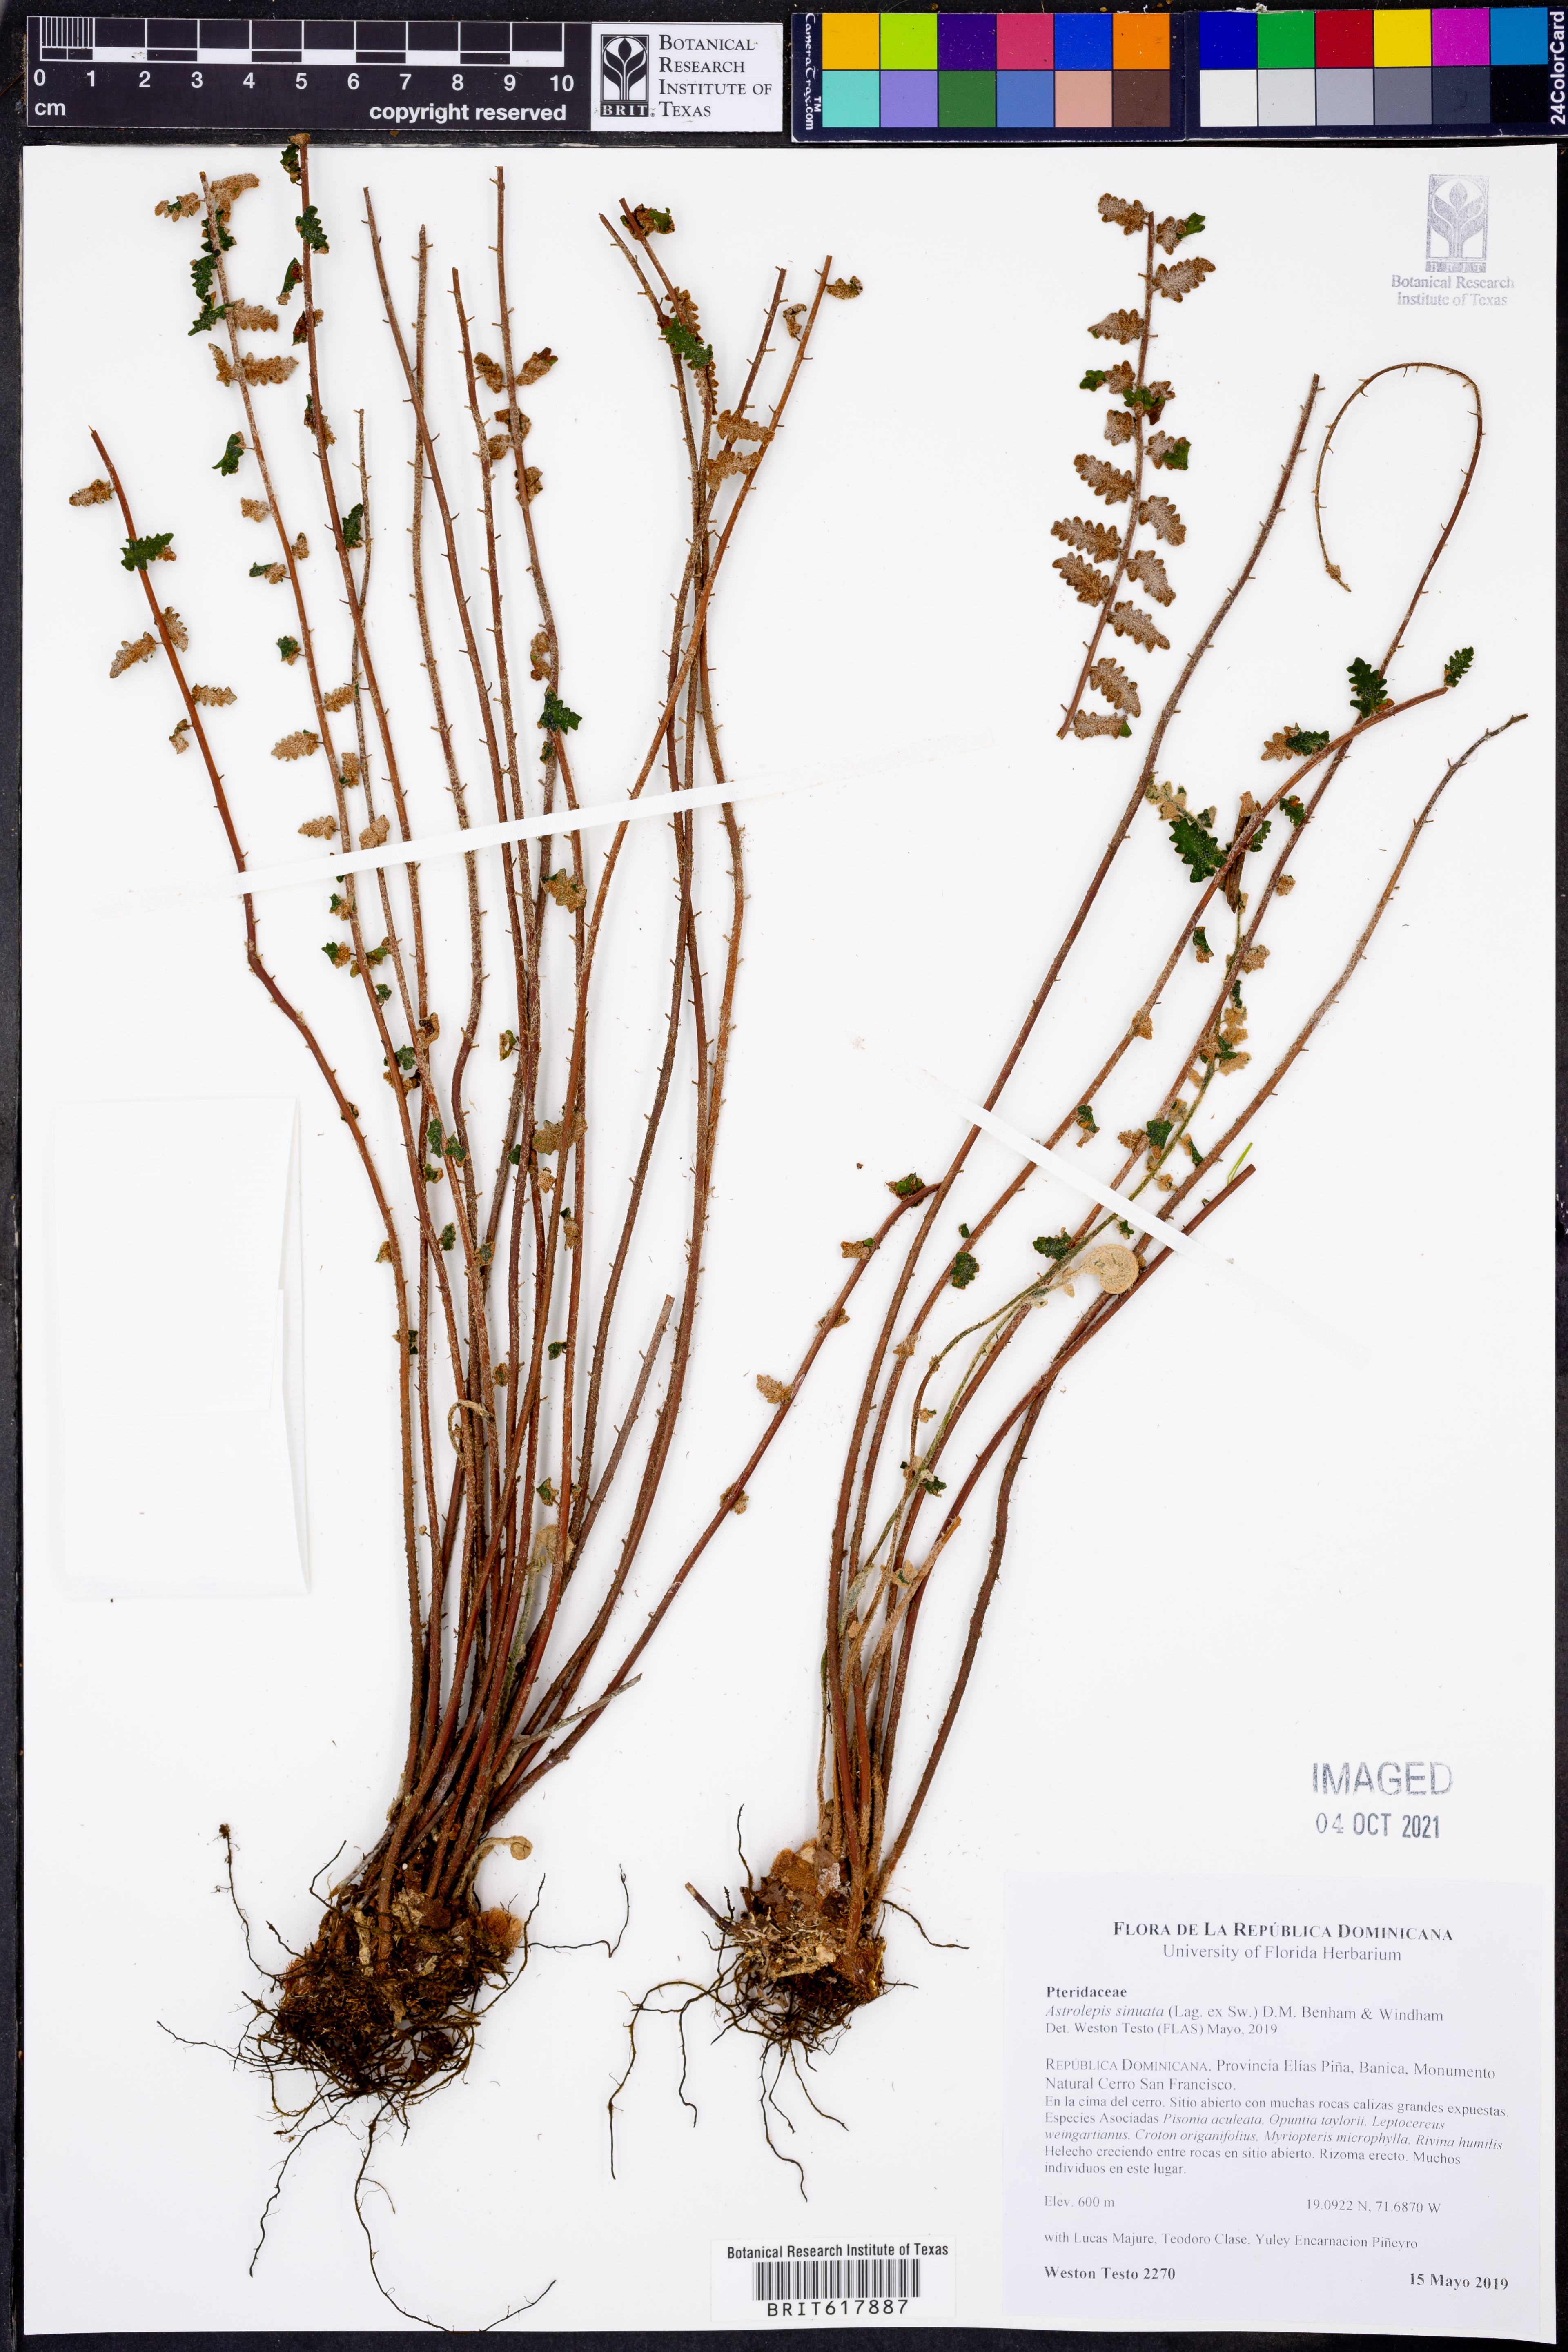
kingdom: Plantae
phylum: Tracheophyta
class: Polypodiopsida
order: Polypodiales
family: Pteridaceae
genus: Astrolepis
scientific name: Astrolepis sinuata
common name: Wavy scaly cloakfern
